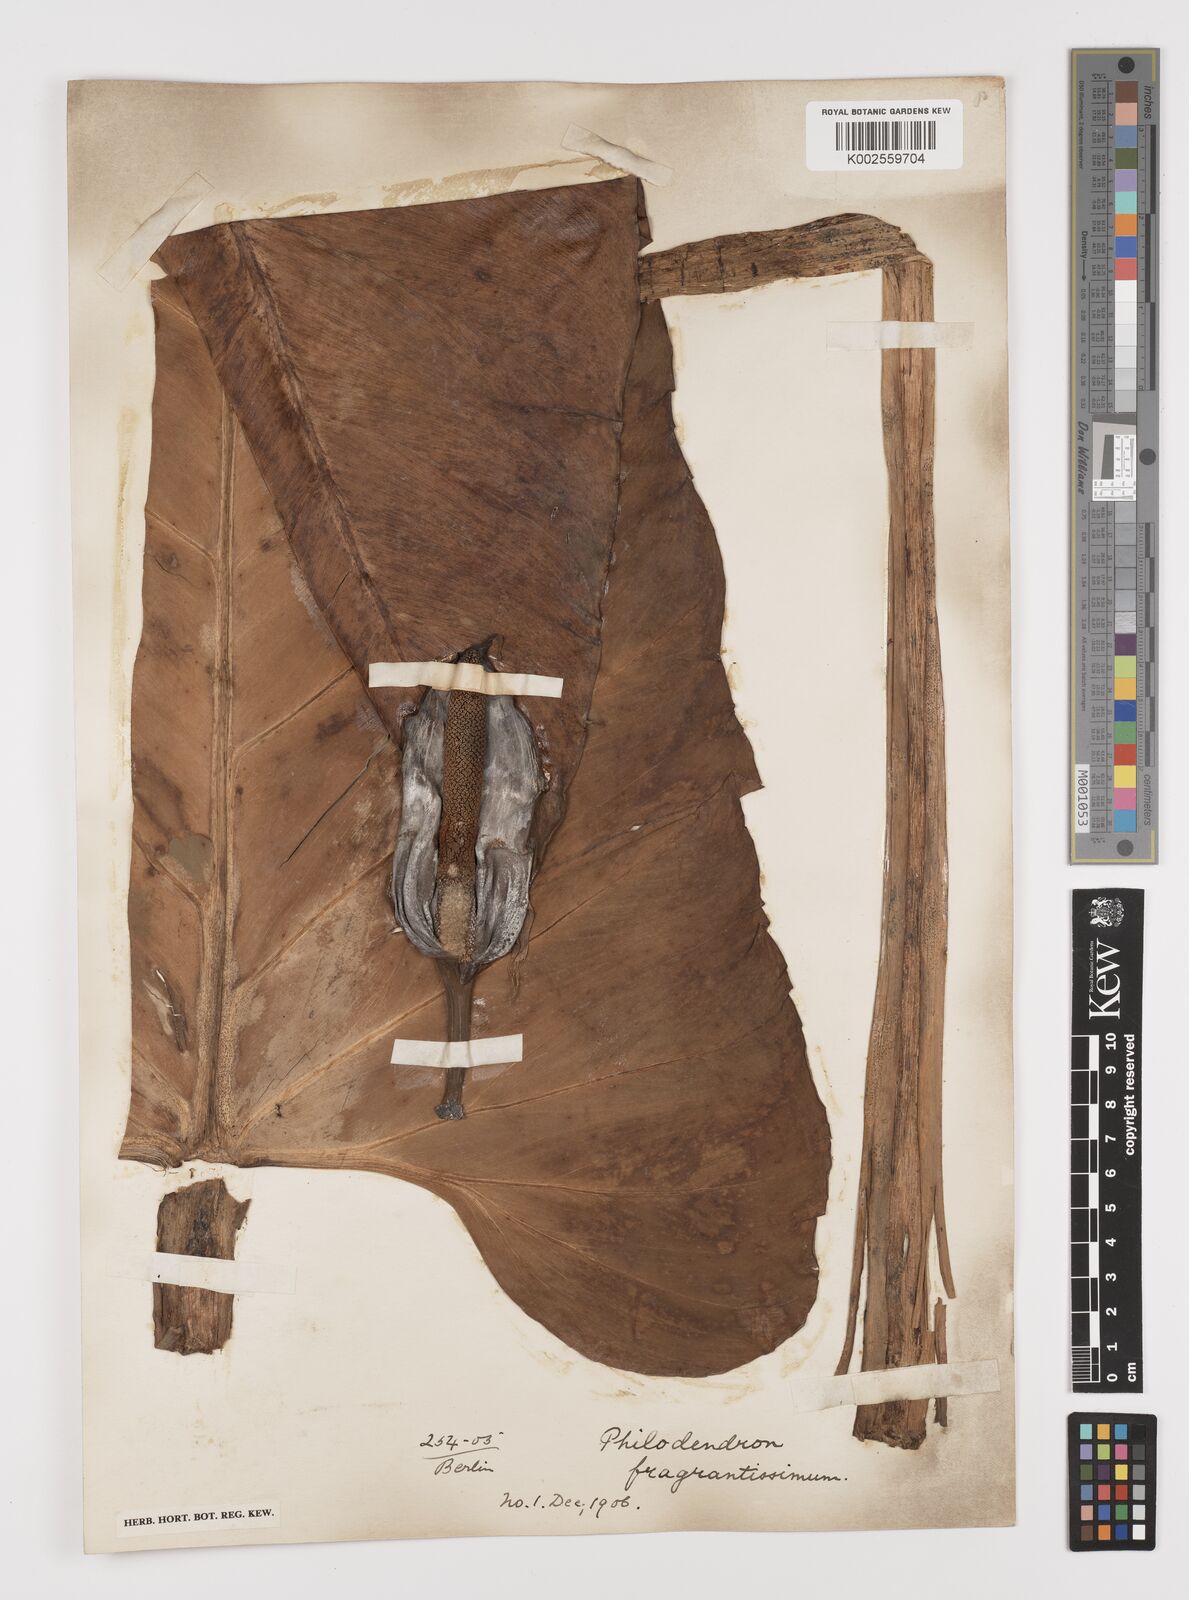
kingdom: Plantae
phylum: Tracheophyta
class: Liliopsida
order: Alismatales
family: Araceae
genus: Philodendron
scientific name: Philodendron fragrantissimum
